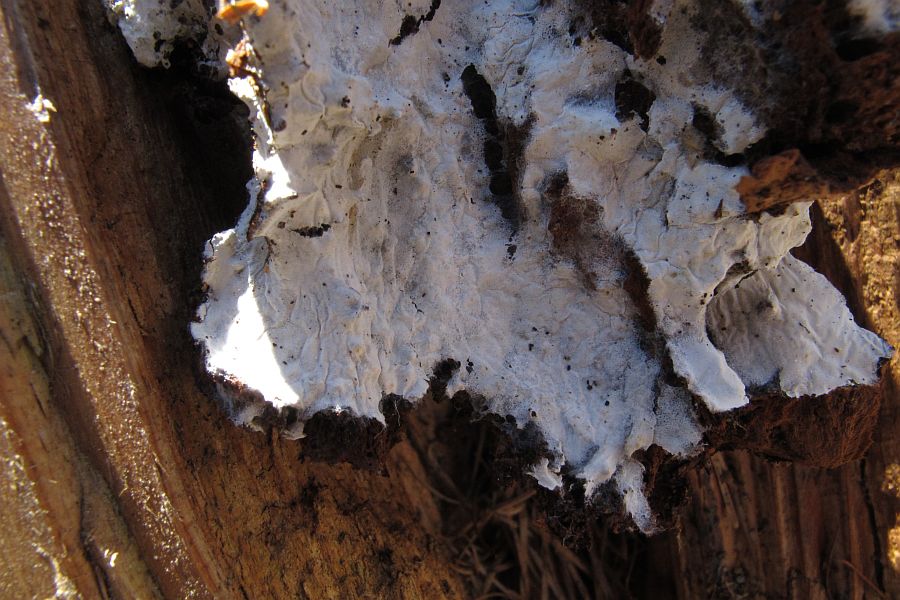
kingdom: Fungi
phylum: Basidiomycota
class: Agaricomycetes
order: Atheliales
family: Atheliaceae
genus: Leptosporomyces
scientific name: Leptosporomyces fuscostratus
